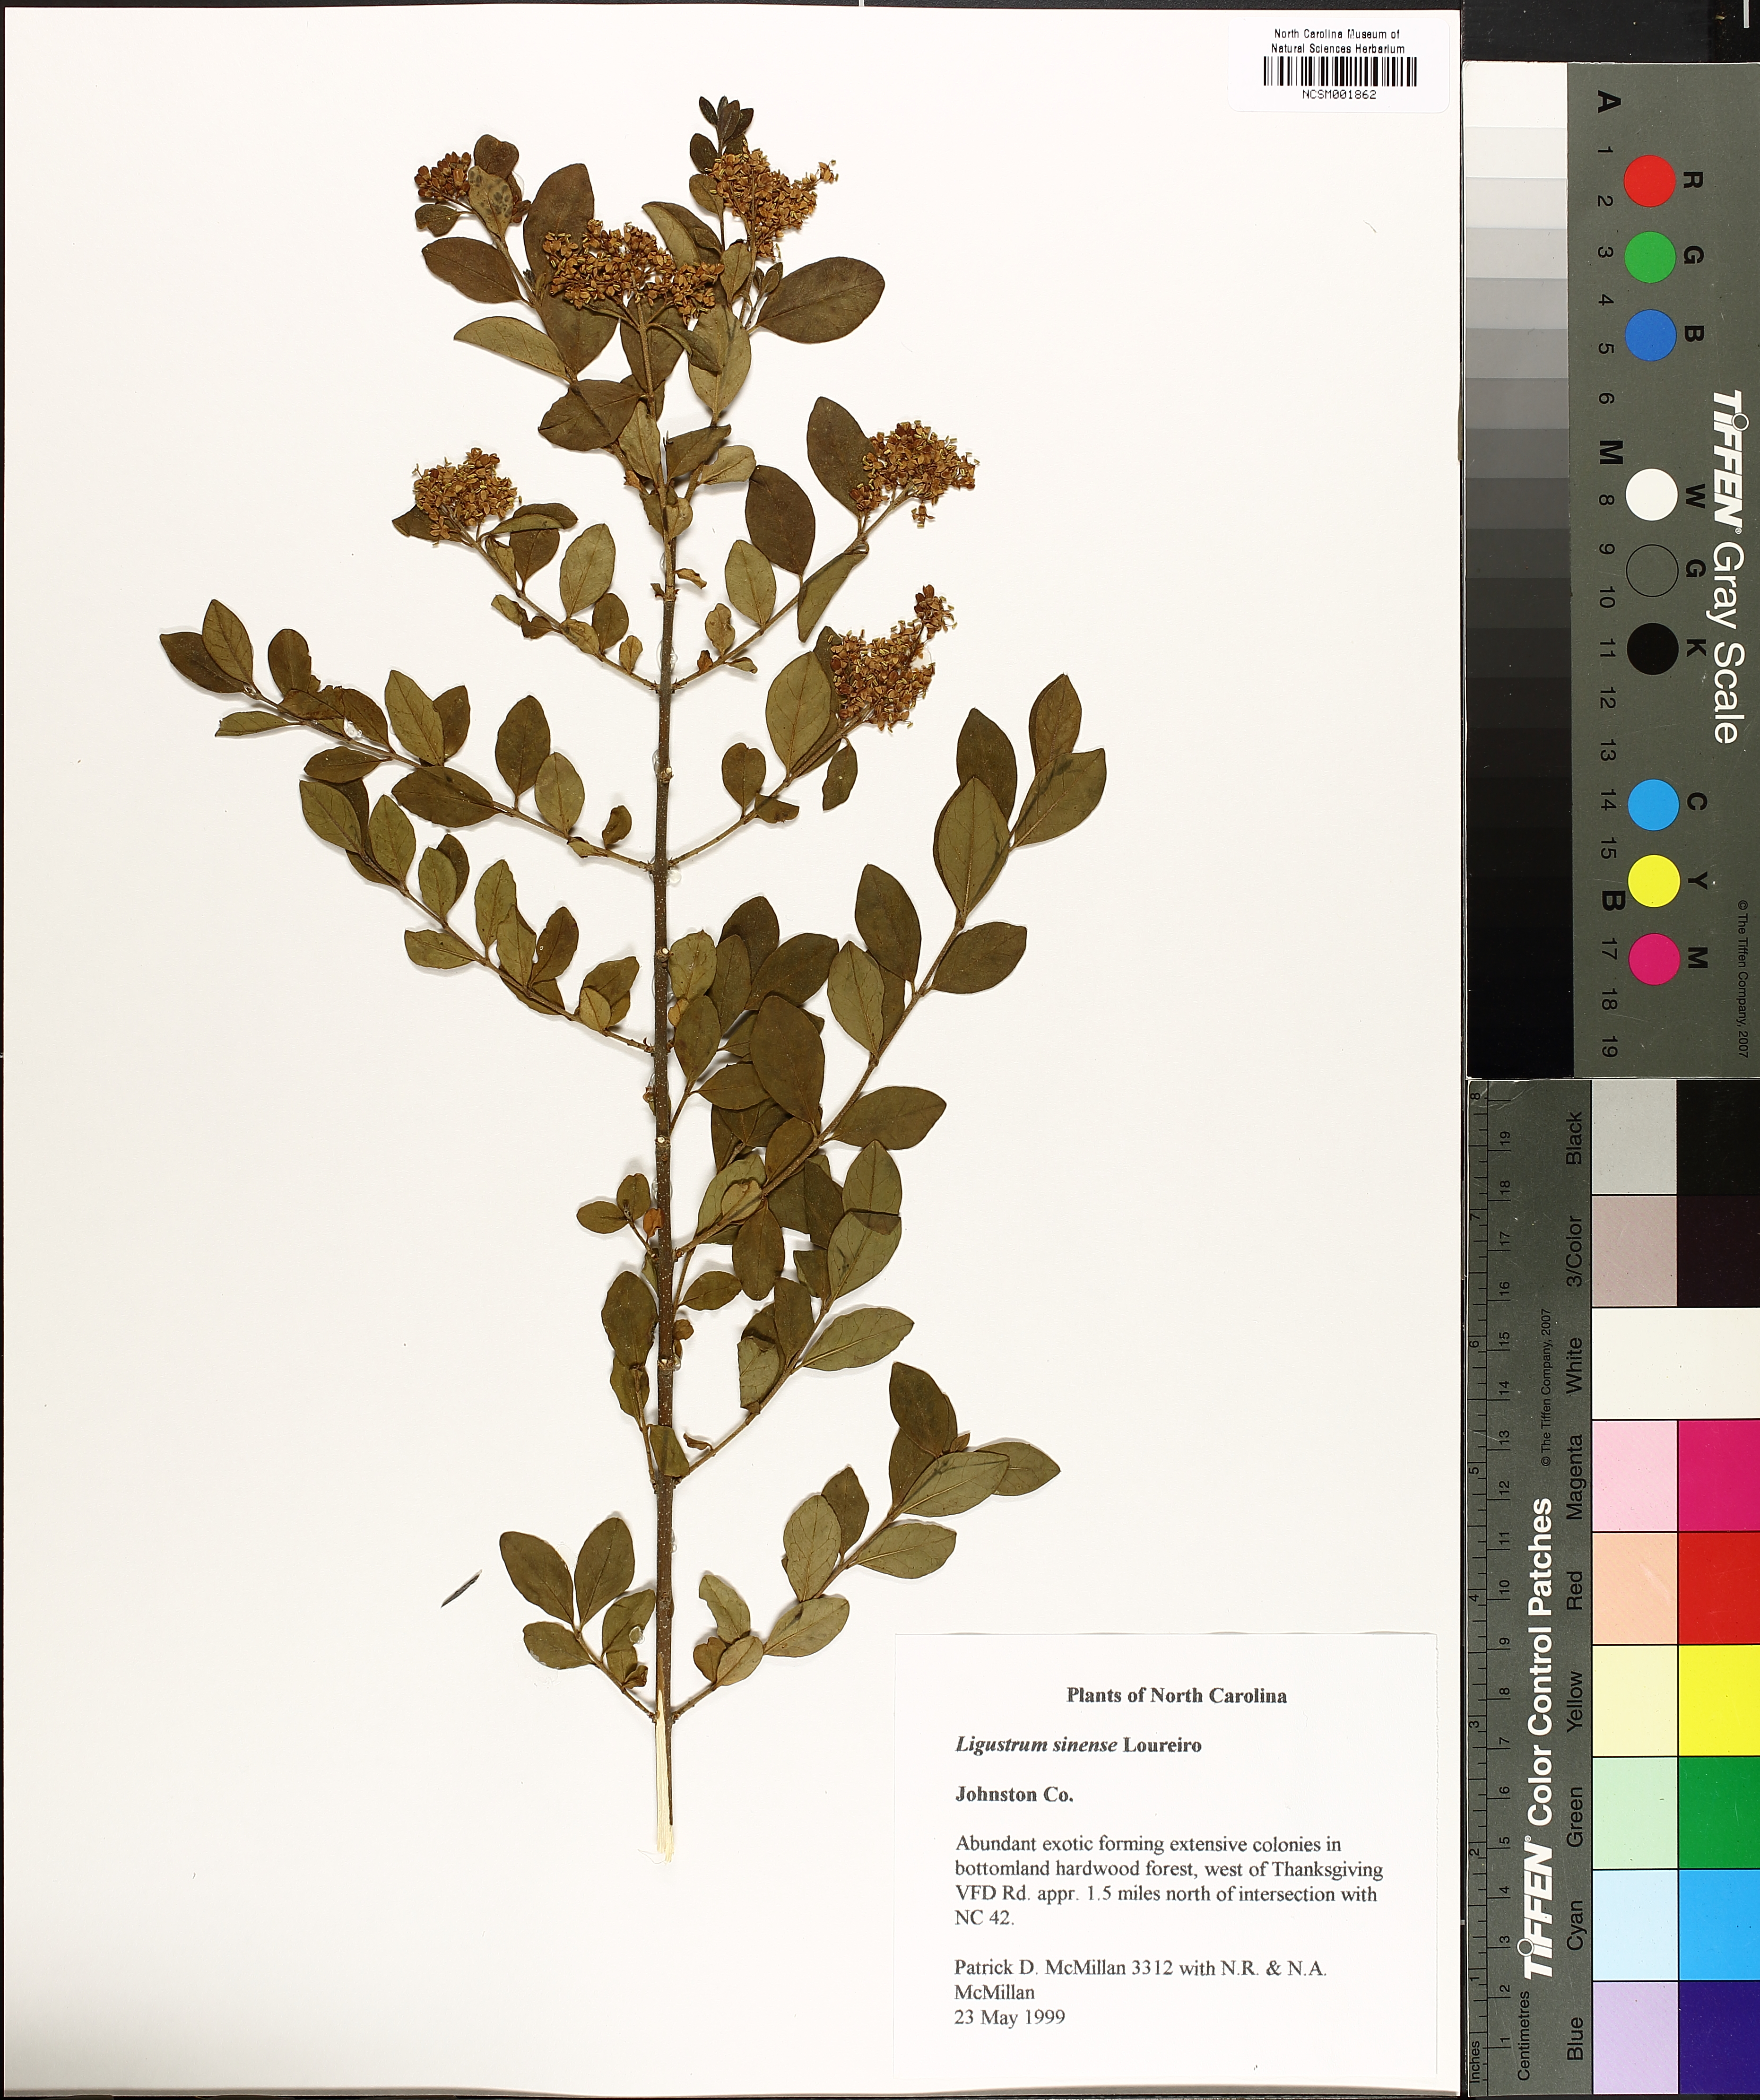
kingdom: Plantae
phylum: Tracheophyta
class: Magnoliopsida
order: Lamiales
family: Oleaceae
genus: Ligustrum
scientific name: Ligustrum sinense
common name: Chinese privet
